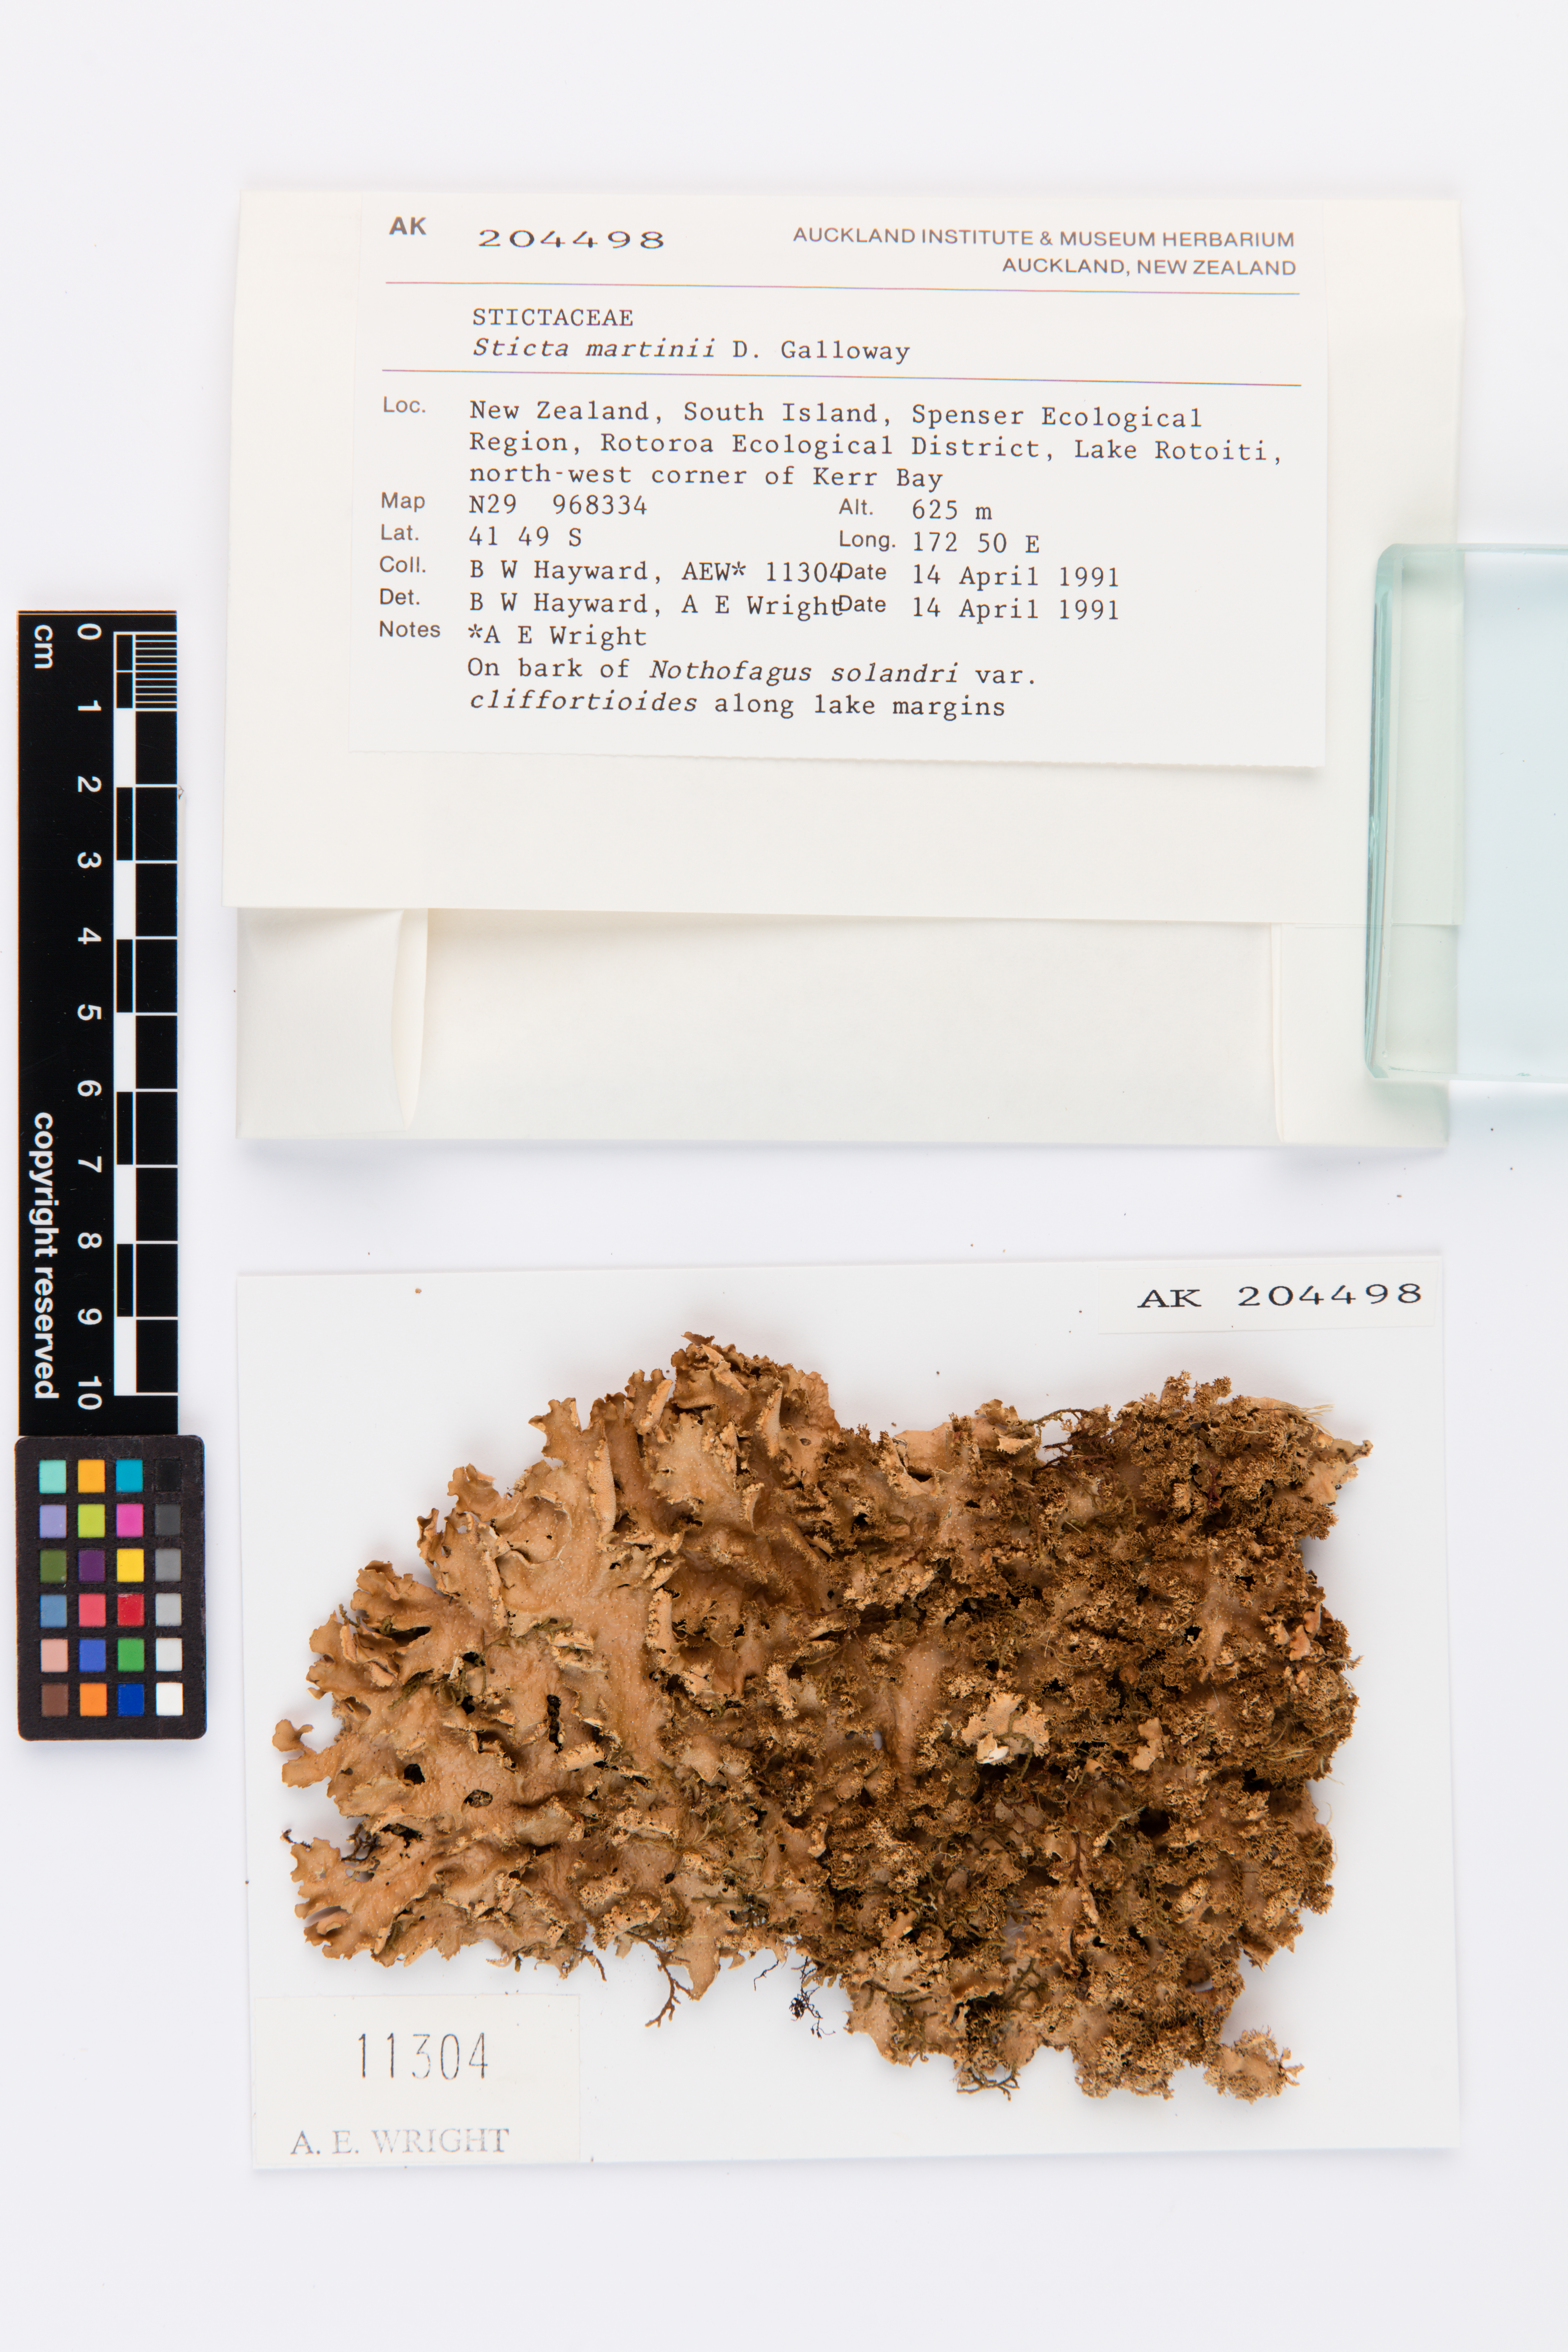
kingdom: Fungi
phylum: Ascomycota
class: Lecanoromycetes
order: Peltigerales
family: Lobariaceae
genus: Sticta
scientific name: Sticta martinii
